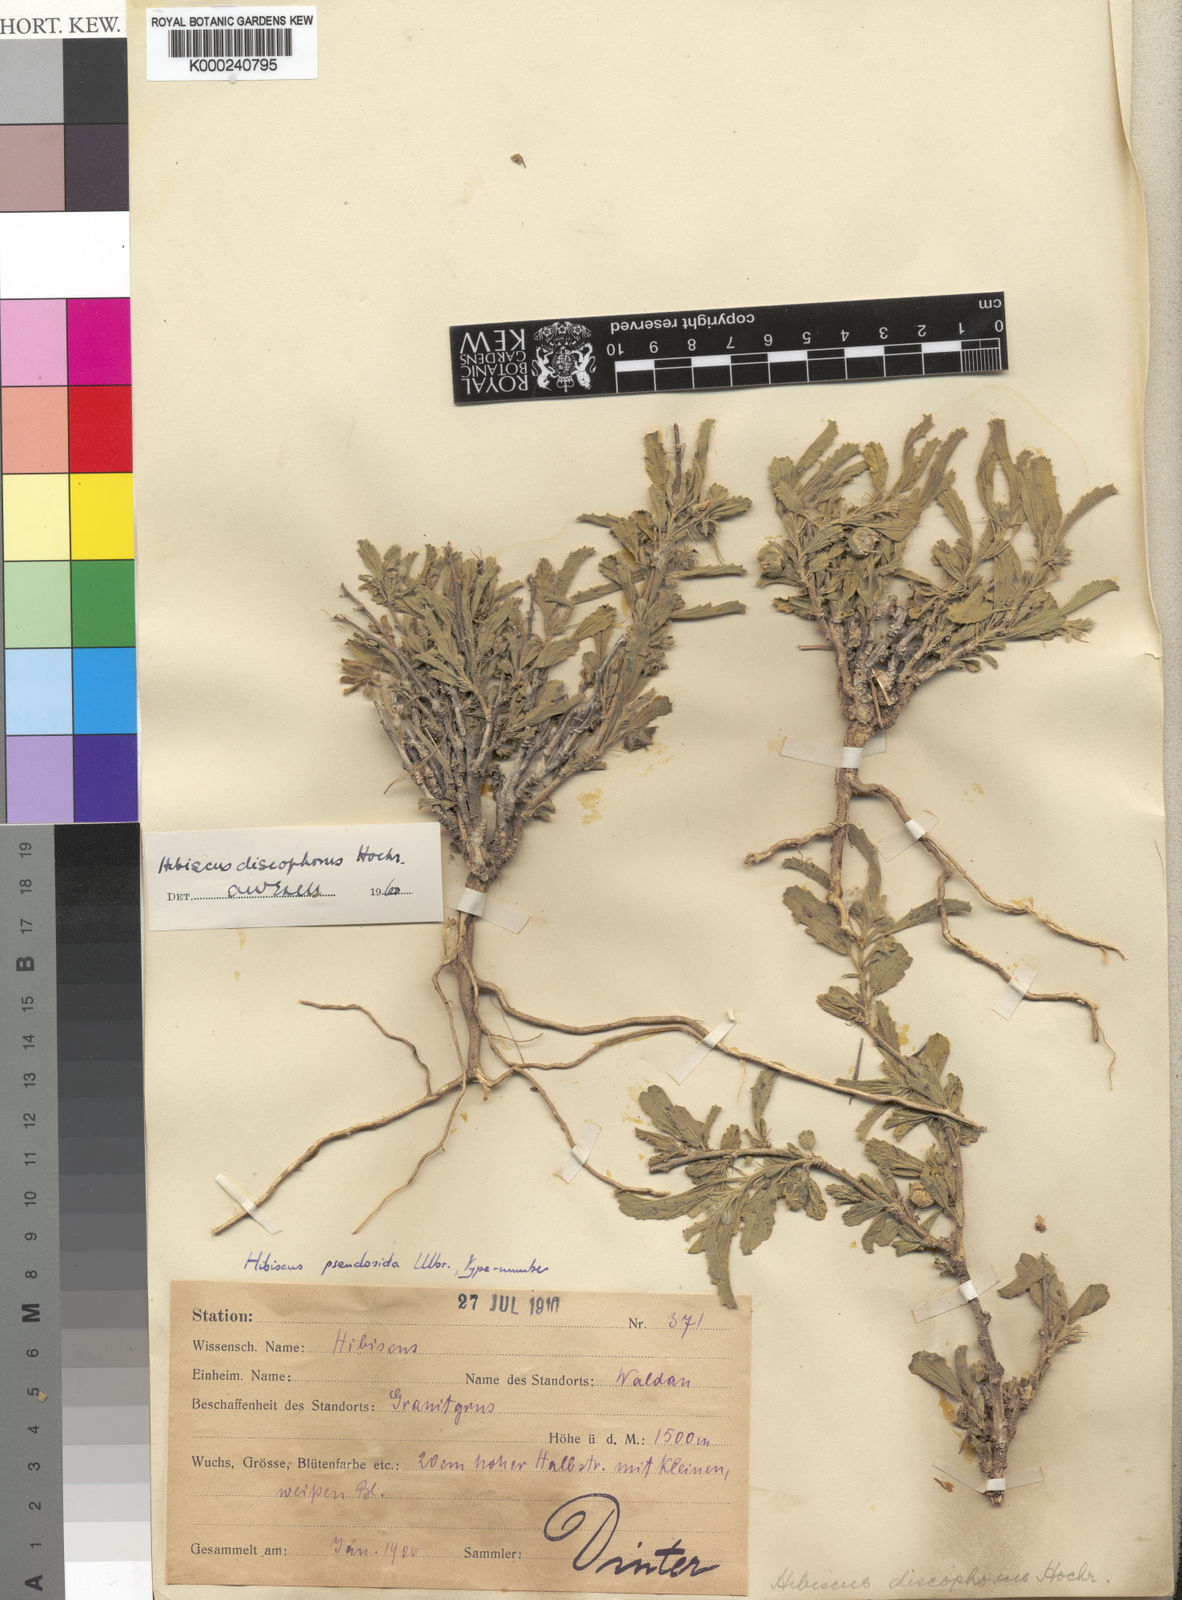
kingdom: Plantae
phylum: Tracheophyta
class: Magnoliopsida
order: Malvales
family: Malvaceae
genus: Hibiscus
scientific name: Hibiscus discophorus
